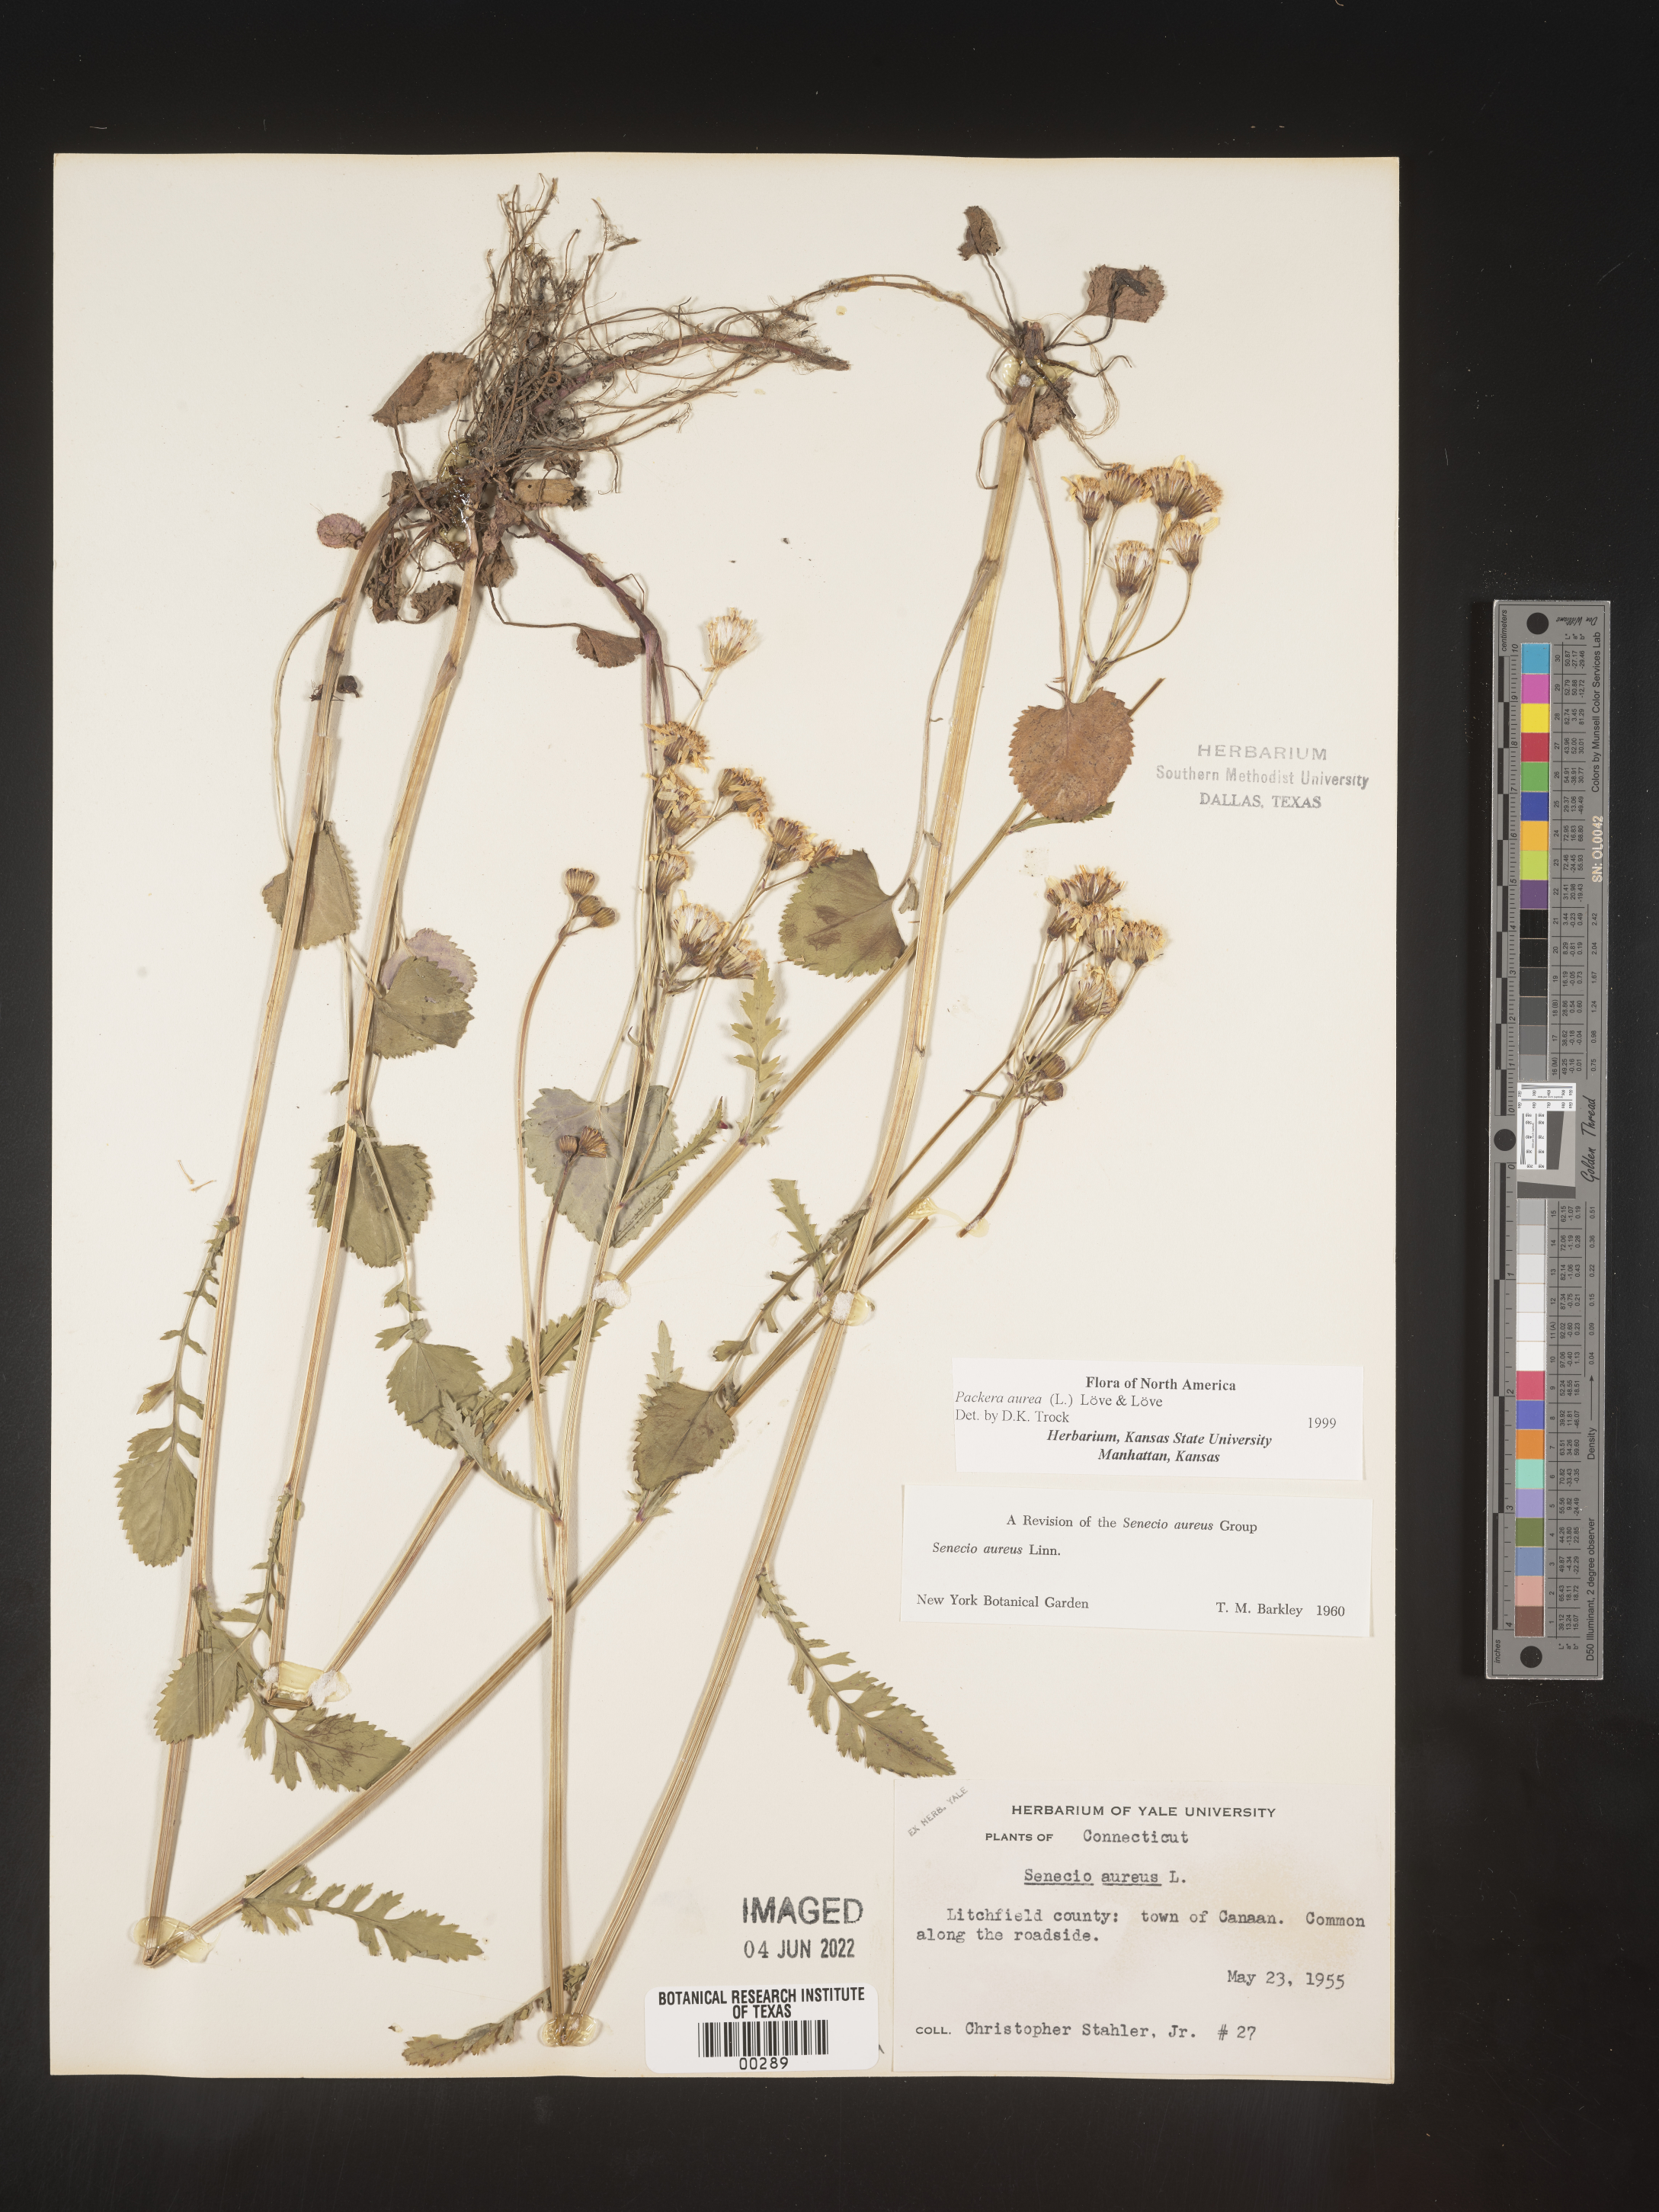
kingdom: Plantae
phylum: Tracheophyta
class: Magnoliopsida
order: Asterales
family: Asteraceae
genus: Packera
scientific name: Packera aurea
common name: Golden groundsel
